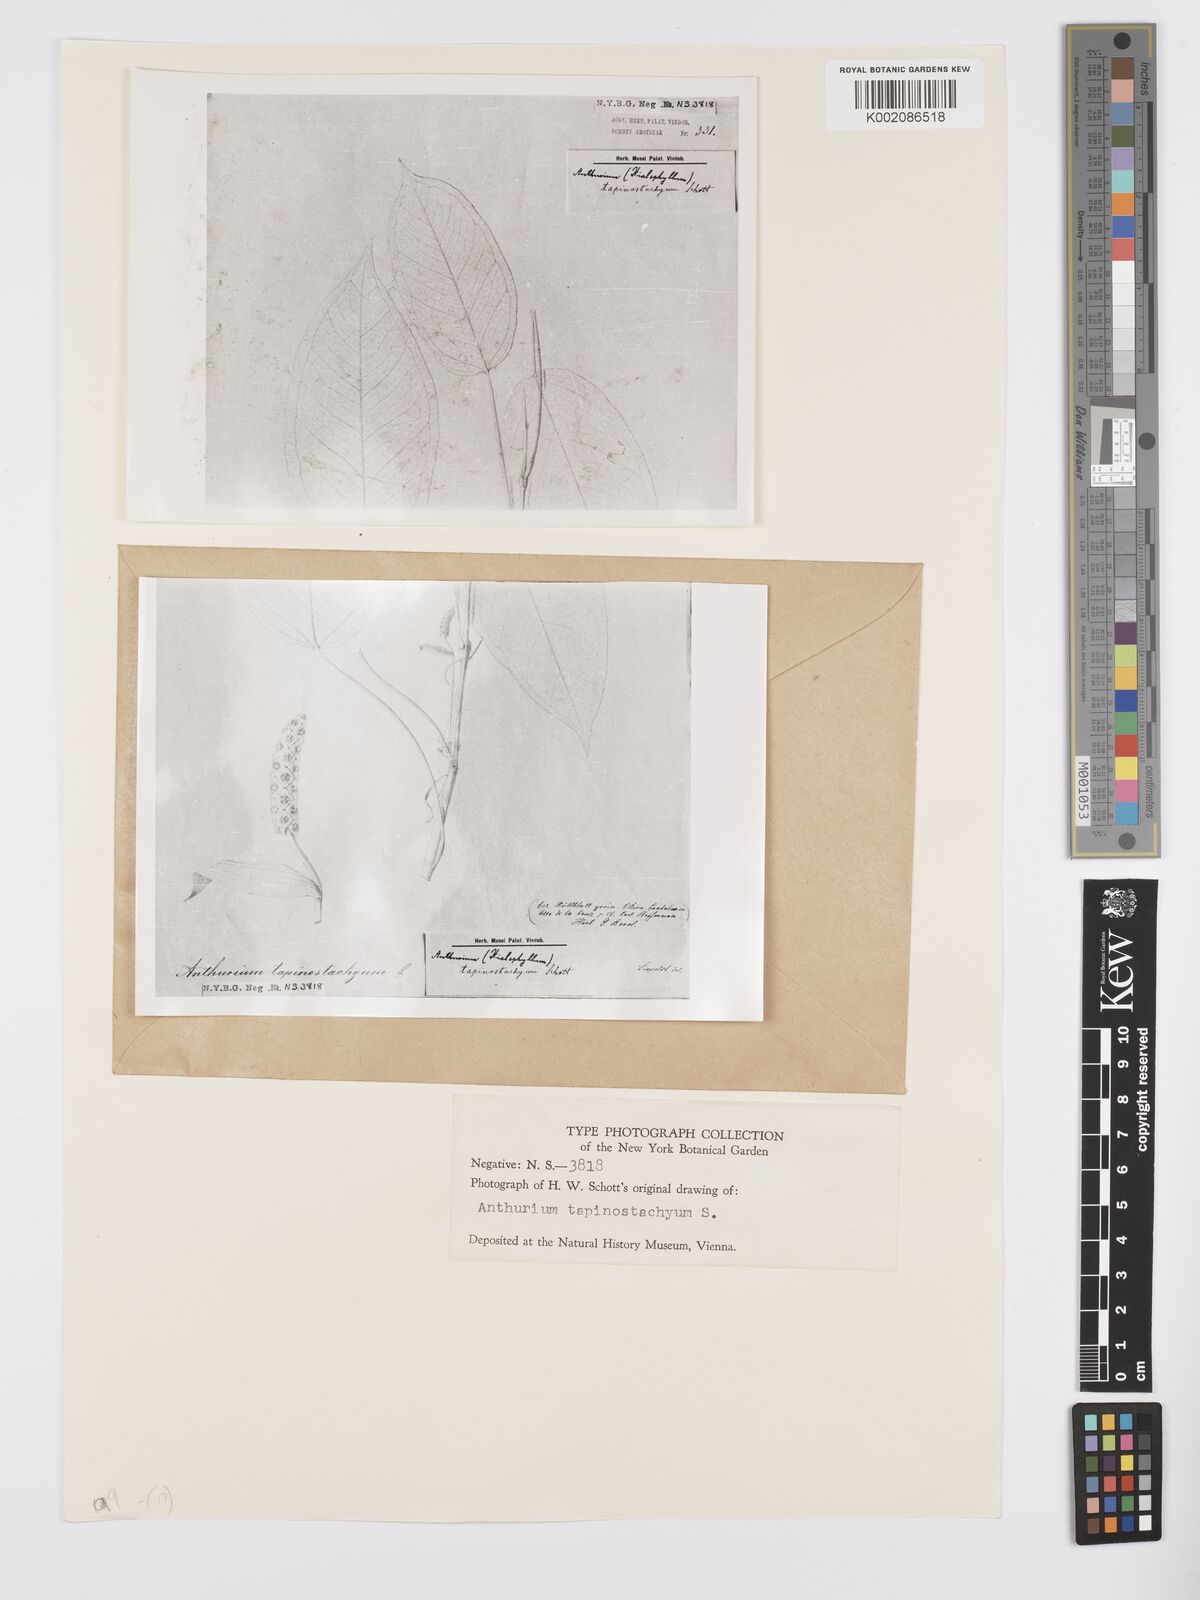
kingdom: Plantae
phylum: Tracheophyta
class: Liliopsida
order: Alismatales
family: Araceae
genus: Anthurium
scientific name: Anthurium microspadix
